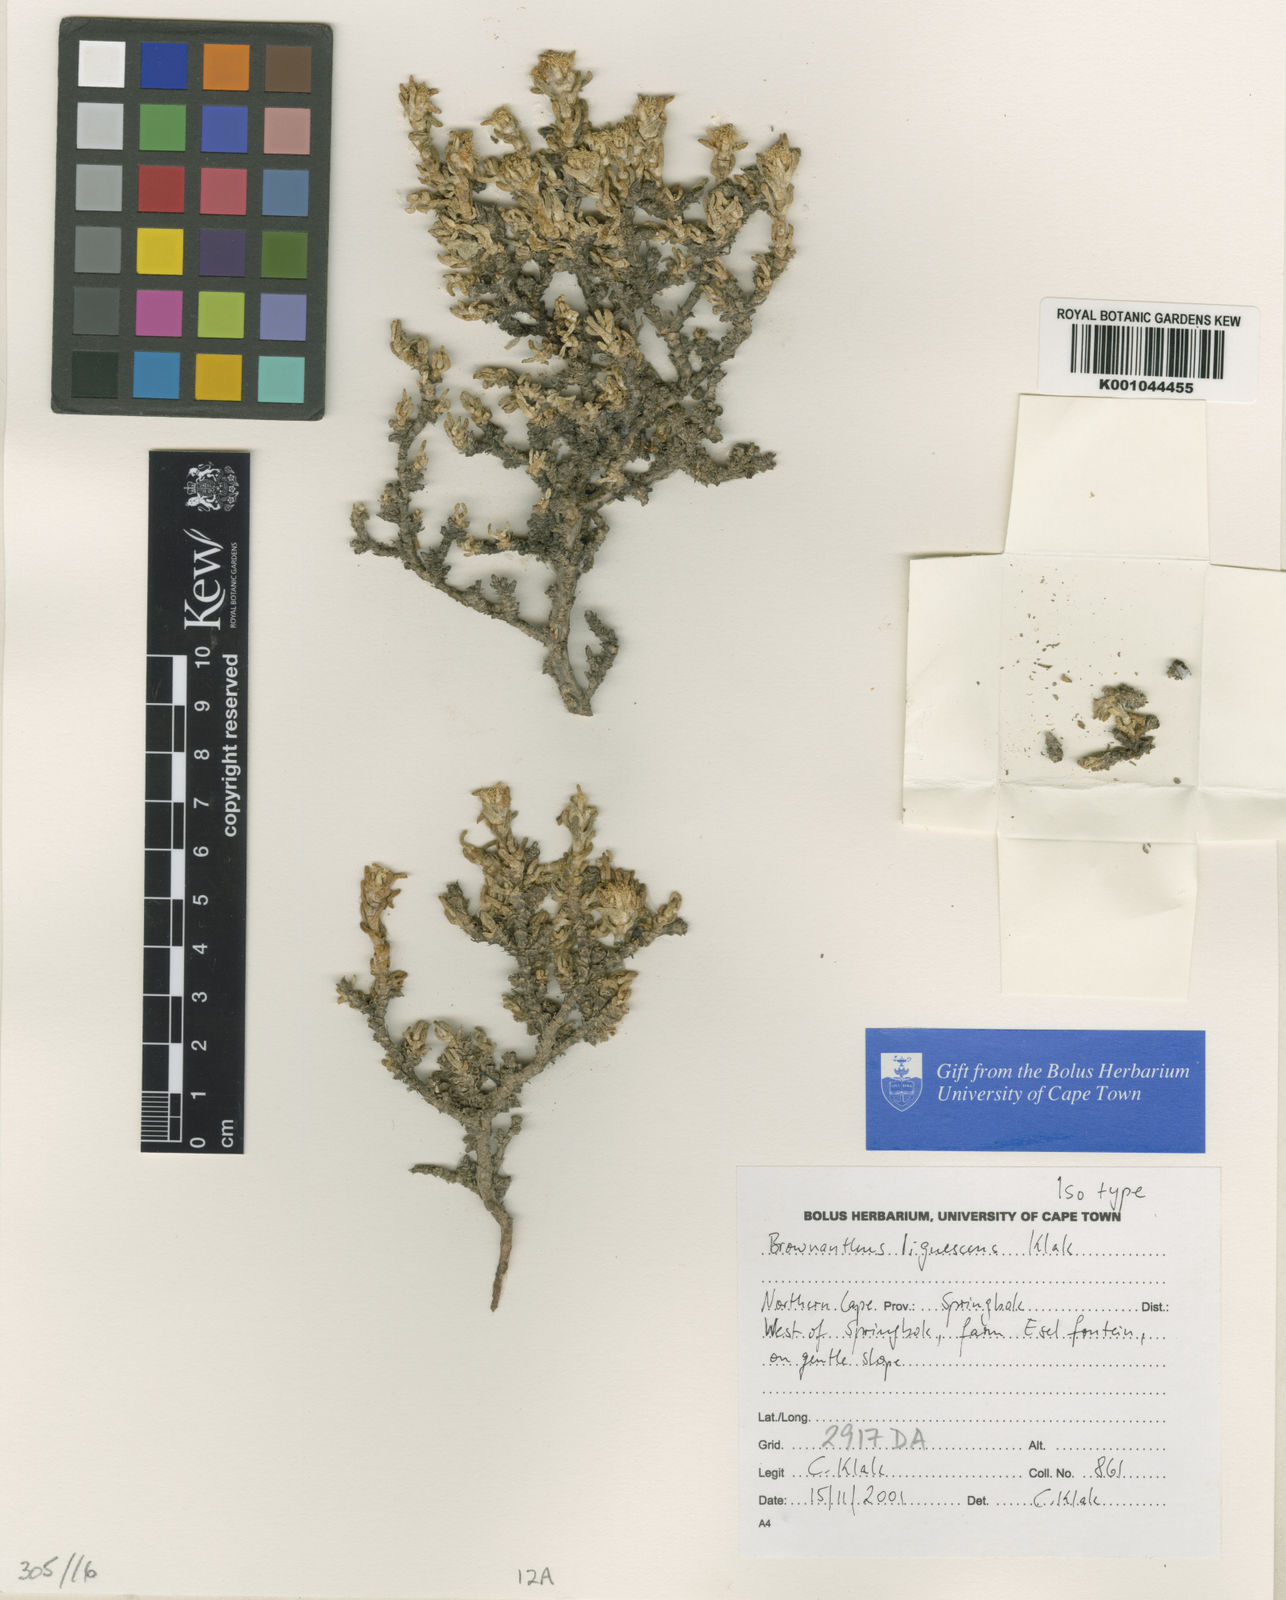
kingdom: Plantae
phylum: Tracheophyta
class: Magnoliopsida
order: Caryophyllales
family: Aizoaceae
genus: Mesembryanthemum
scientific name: Mesembryanthemum springbokense
